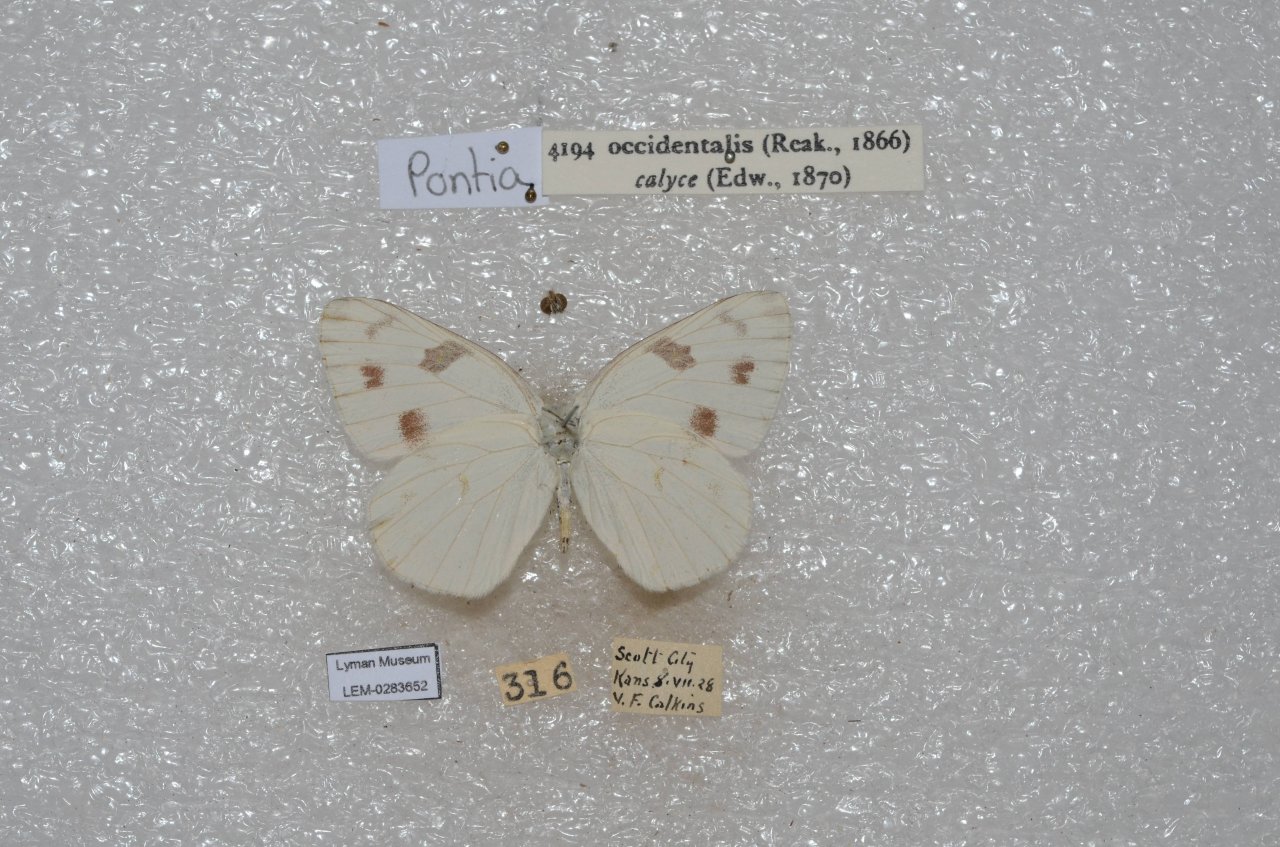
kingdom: Animalia
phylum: Arthropoda
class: Insecta
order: Lepidoptera
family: Pieridae
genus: Pontia
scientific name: Pontia occidentalis
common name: Western White
